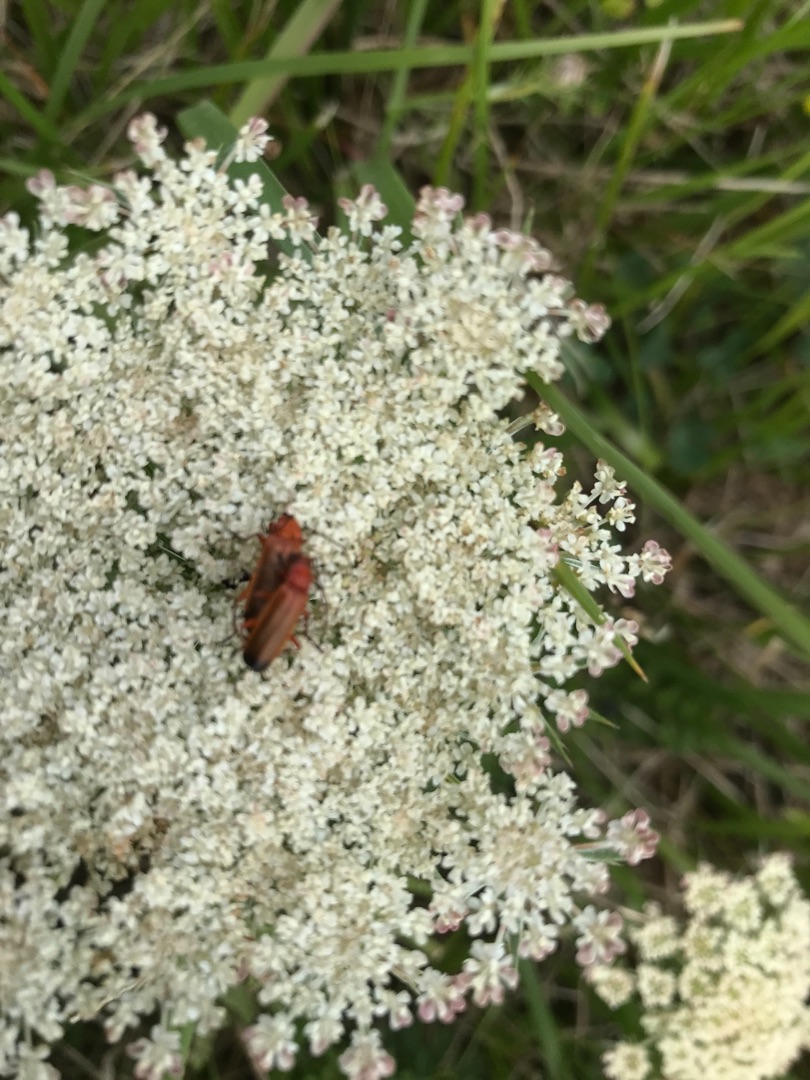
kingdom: Animalia
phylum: Arthropoda
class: Insecta
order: Coleoptera
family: Cantharidae
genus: Rhagonycha
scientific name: Rhagonycha fulva
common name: Præstebille
